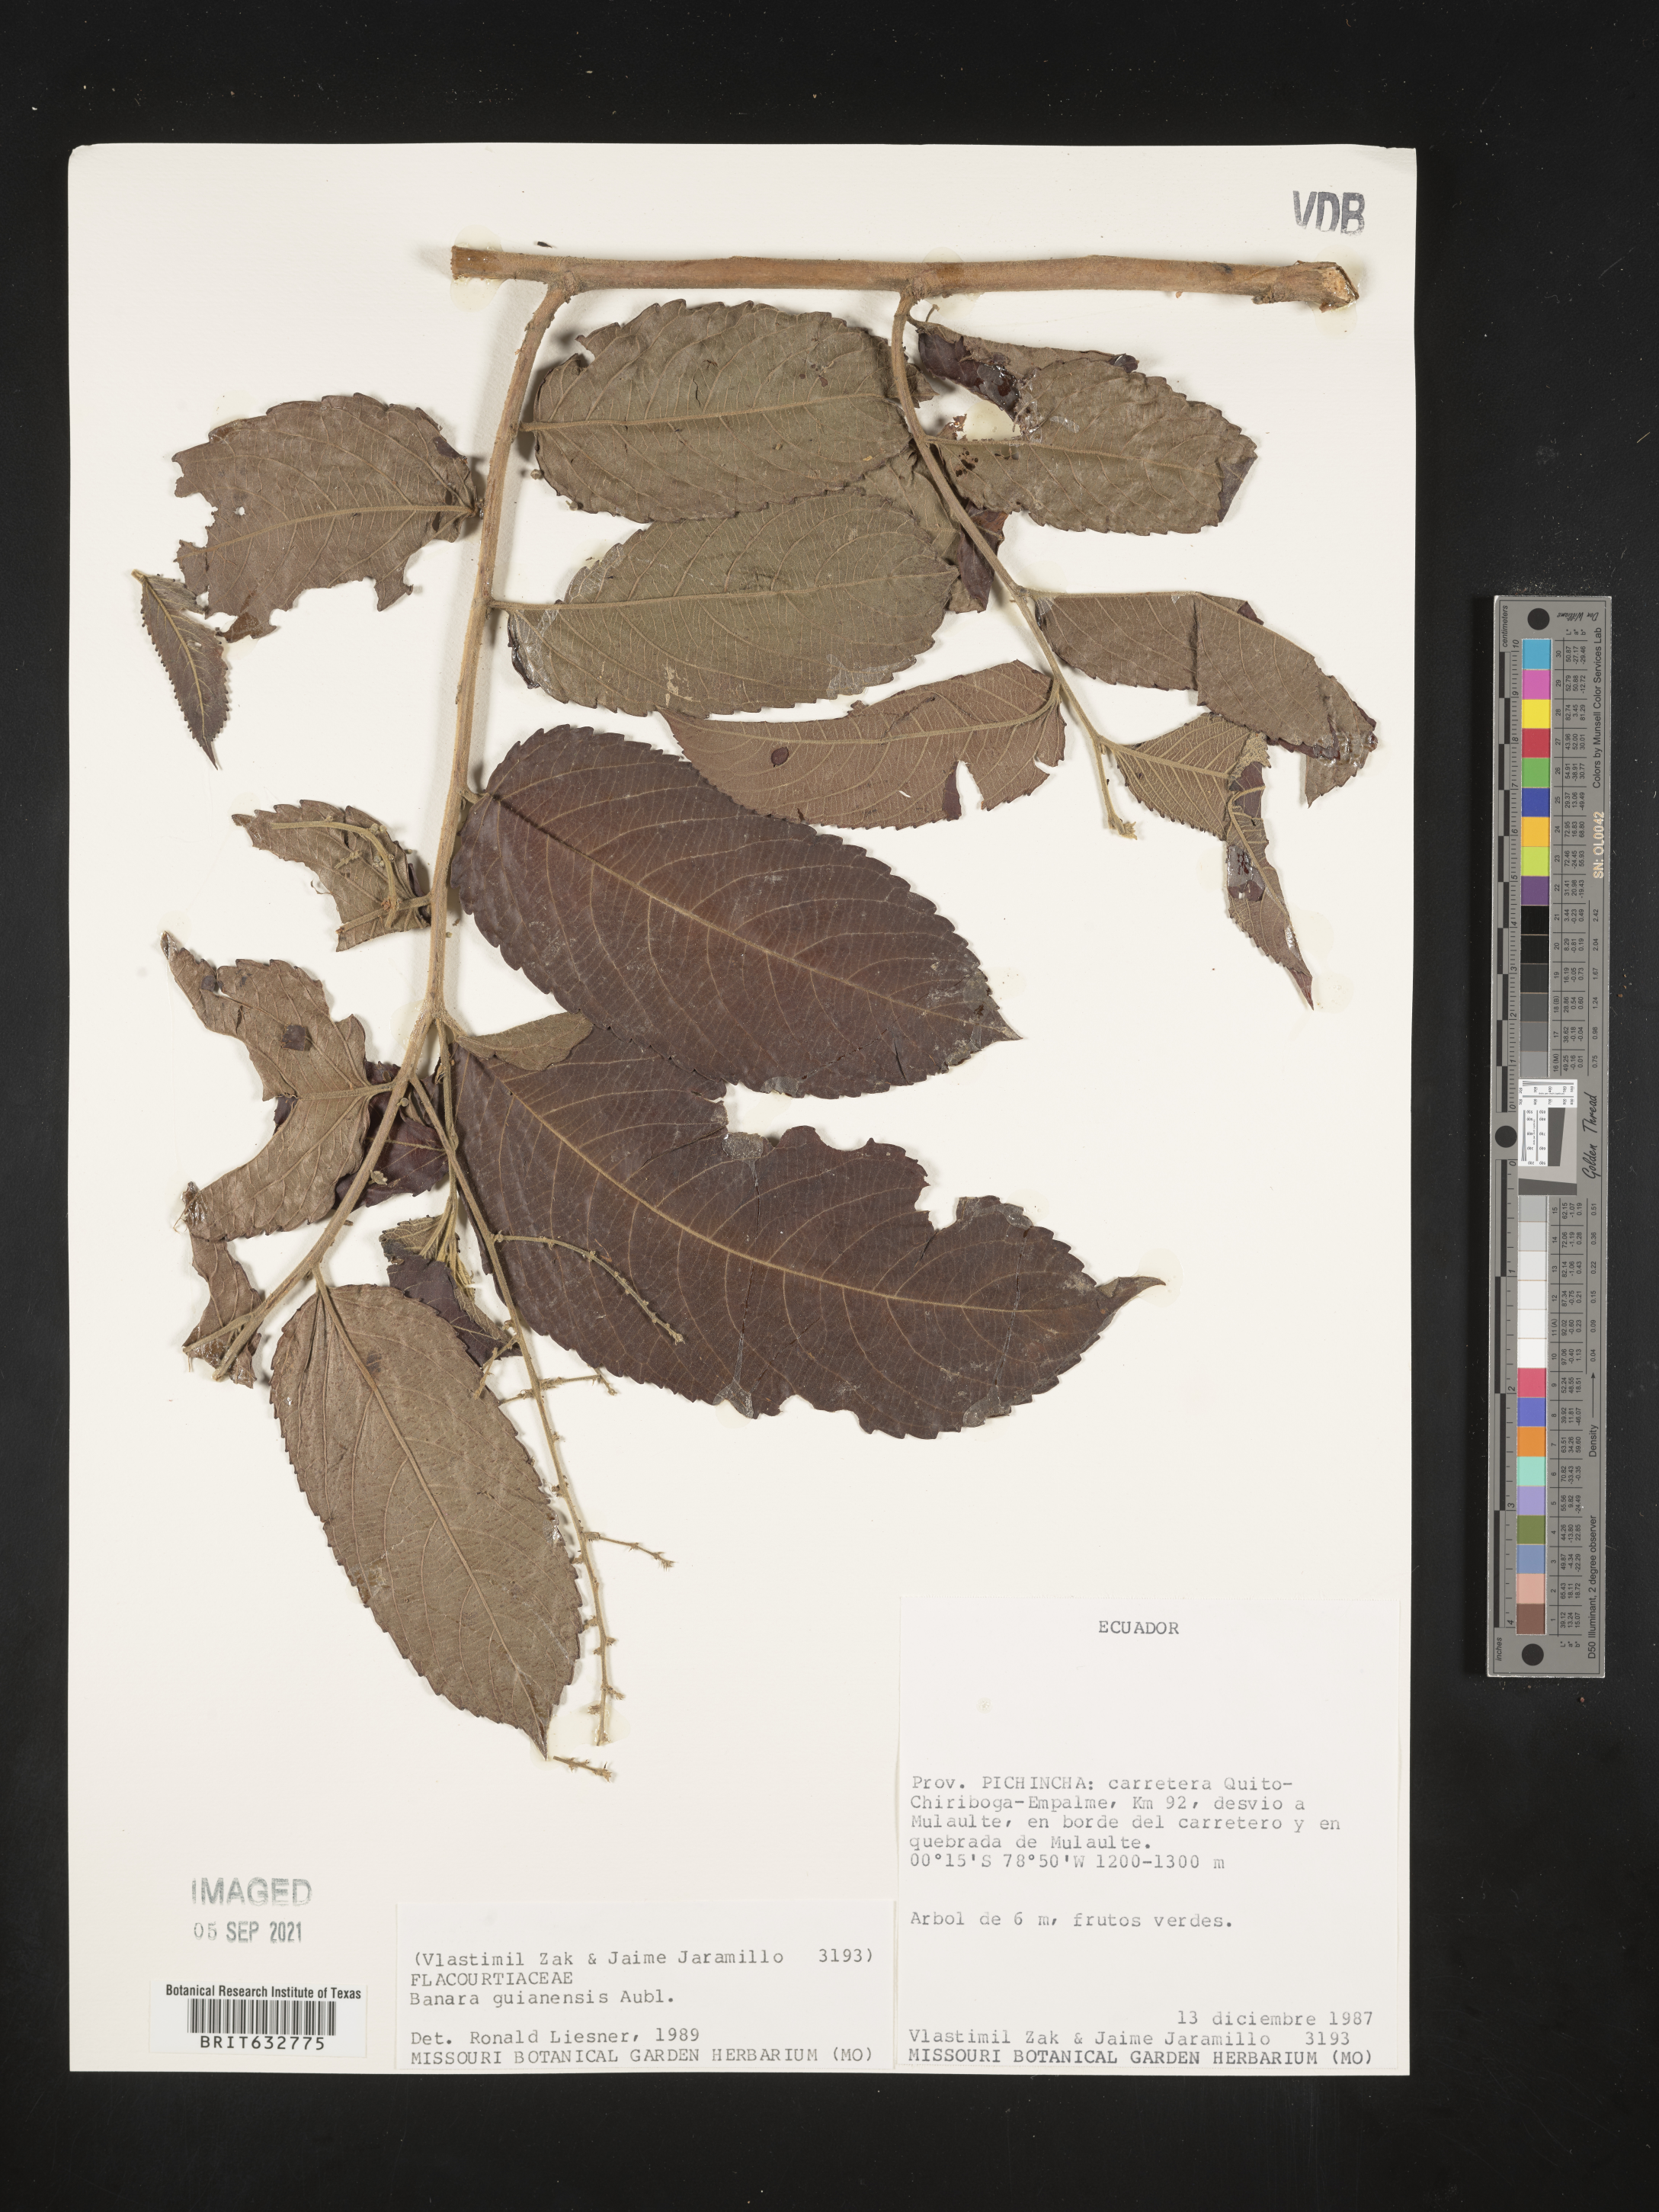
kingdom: Plantae
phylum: Tracheophyta
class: Magnoliopsida
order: Malpighiales
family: Salicaceae
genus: Banara
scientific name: Banara
